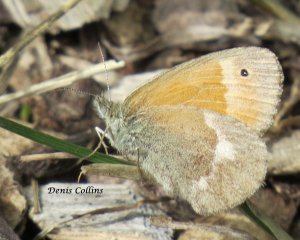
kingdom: Animalia
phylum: Arthropoda
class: Insecta
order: Lepidoptera
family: Nymphalidae
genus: Coenonympha
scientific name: Coenonympha tullia
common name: Large Heath
